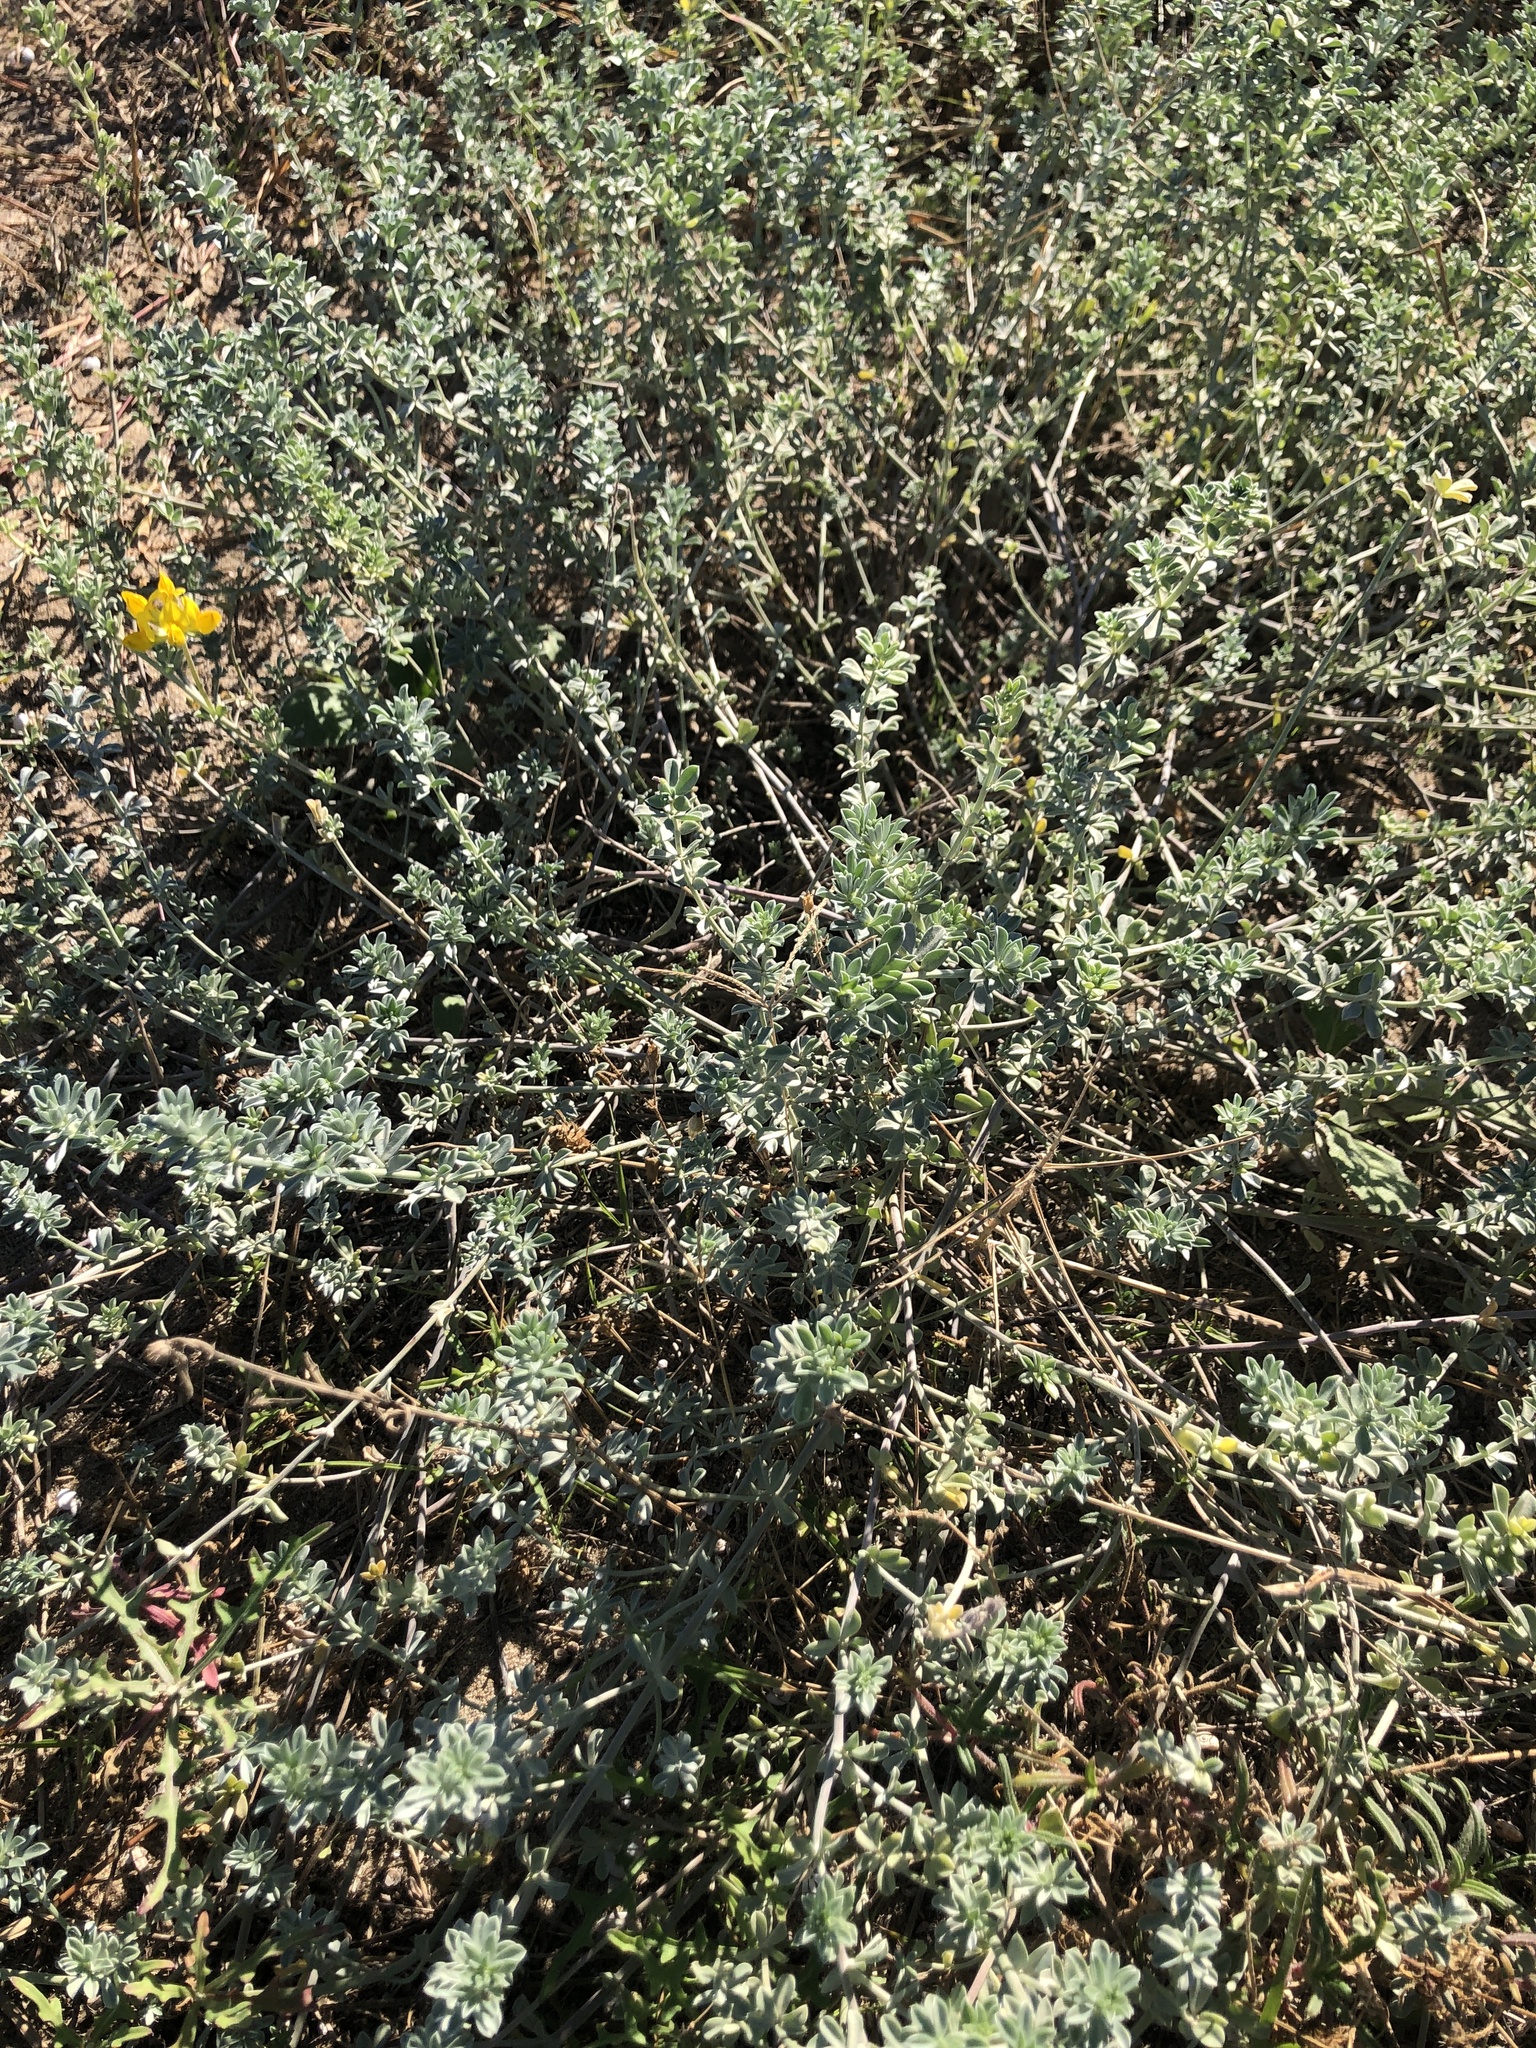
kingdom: Plantae
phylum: Tracheophyta
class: Magnoliopsida
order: Fabales
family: Fabaceae
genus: Lotus
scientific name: Lotus creticus
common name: Cretan bird's-foot trefoil
